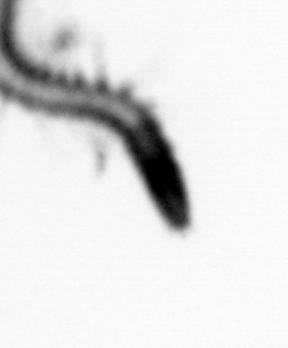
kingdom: Animalia
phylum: Annelida
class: Polychaeta
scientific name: Polychaeta
